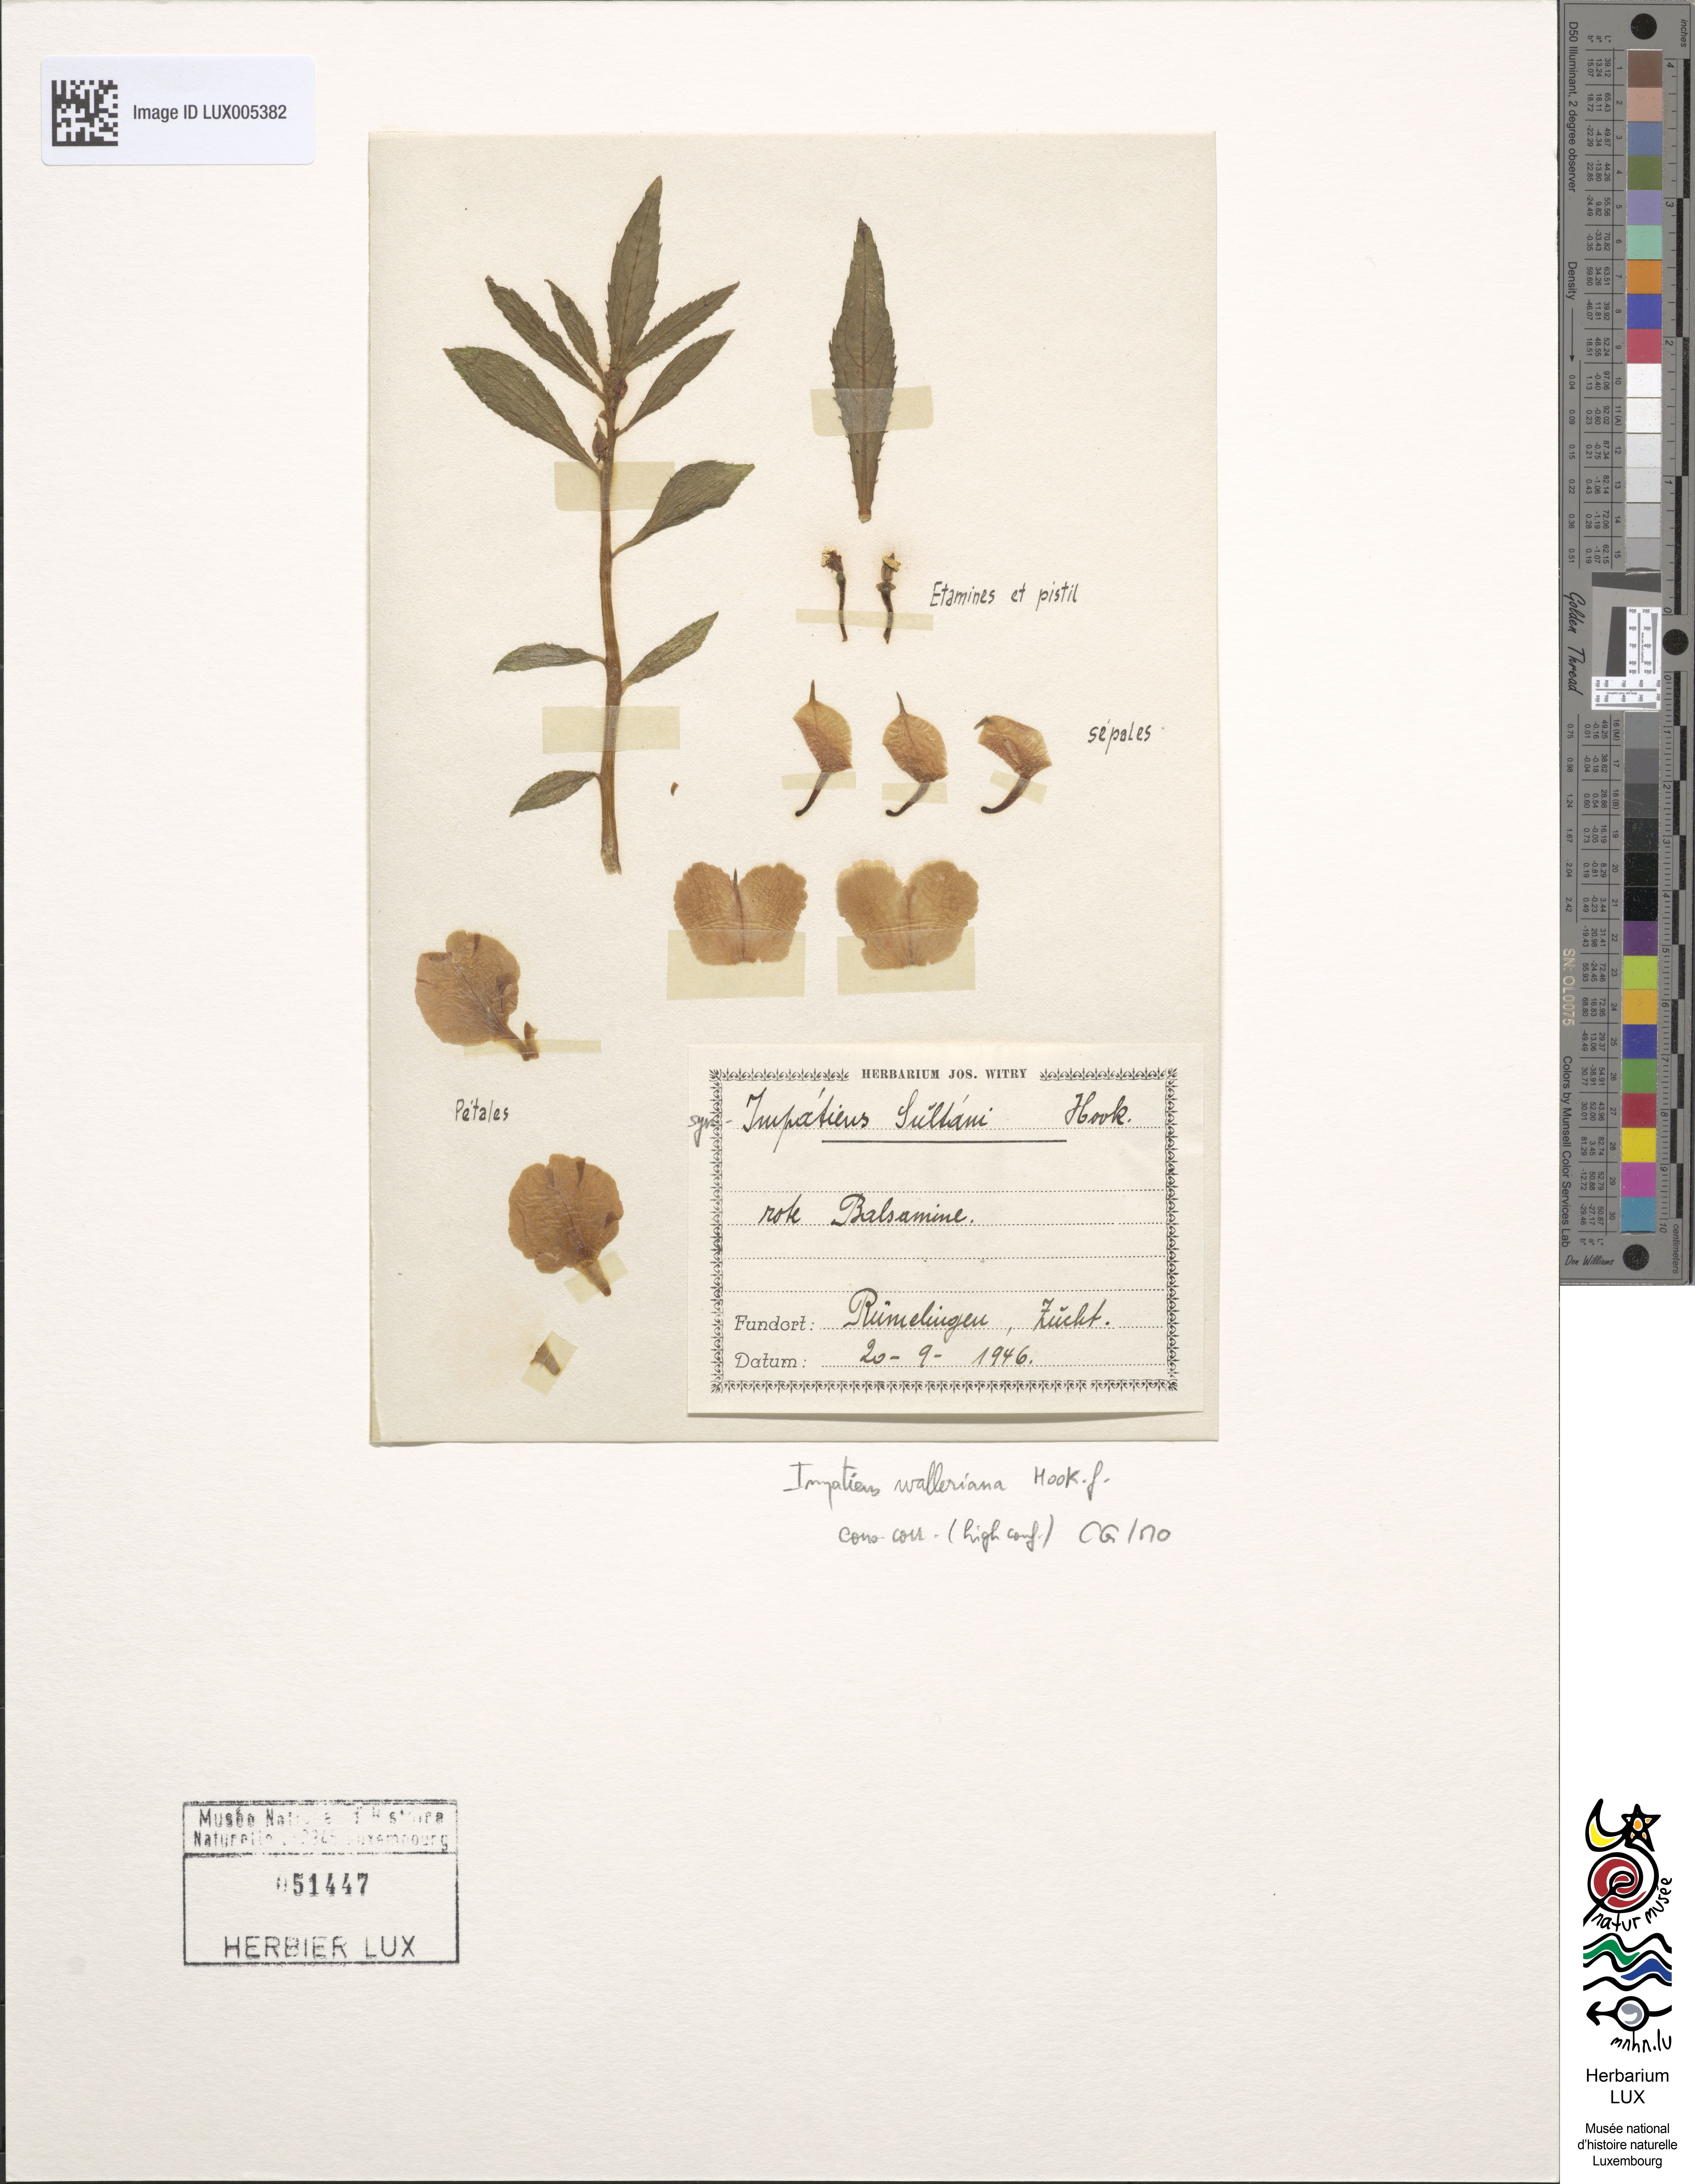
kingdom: Plantae
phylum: Tracheophyta
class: Magnoliopsida
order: Ericales
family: Balsaminaceae
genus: Impatiens
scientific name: Impatiens walleriana
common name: Buzzy lizzy
